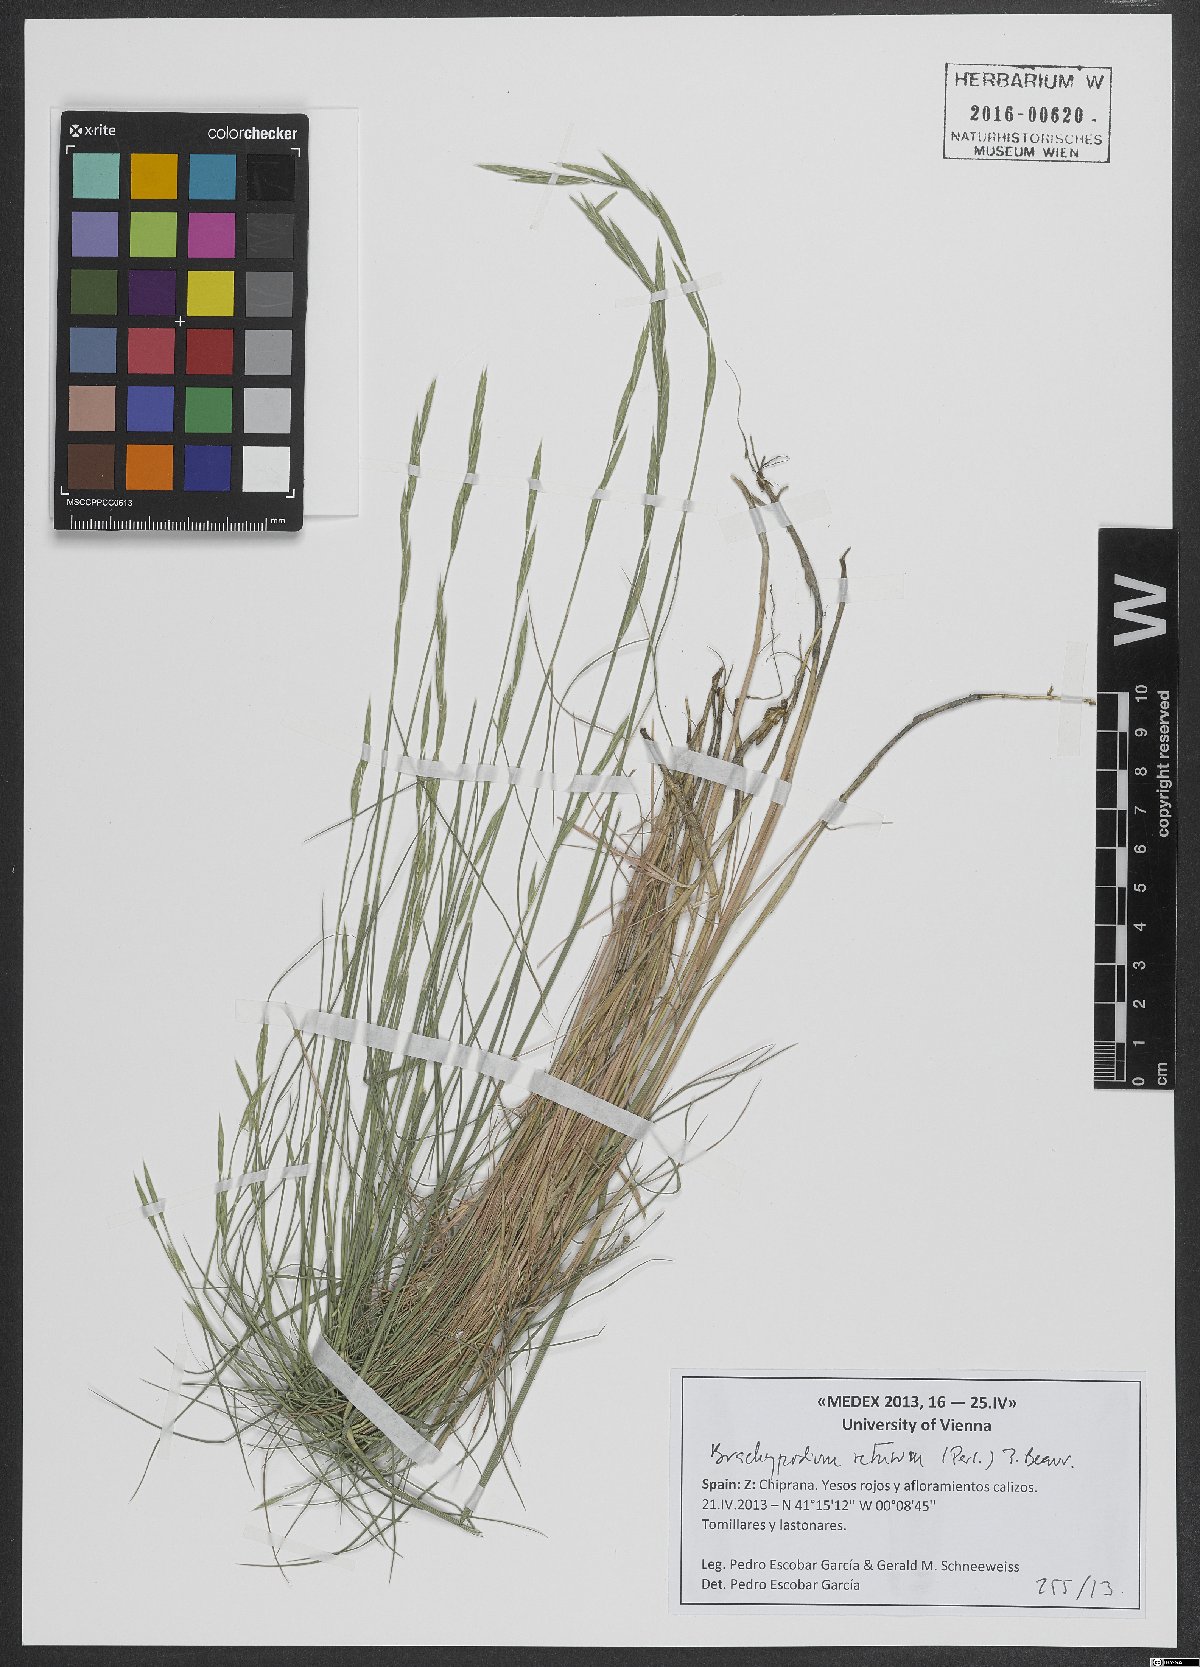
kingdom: Plantae
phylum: Tracheophyta
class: Liliopsida
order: Poales
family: Poaceae
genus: Brachypodium
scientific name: Brachypodium retusum
